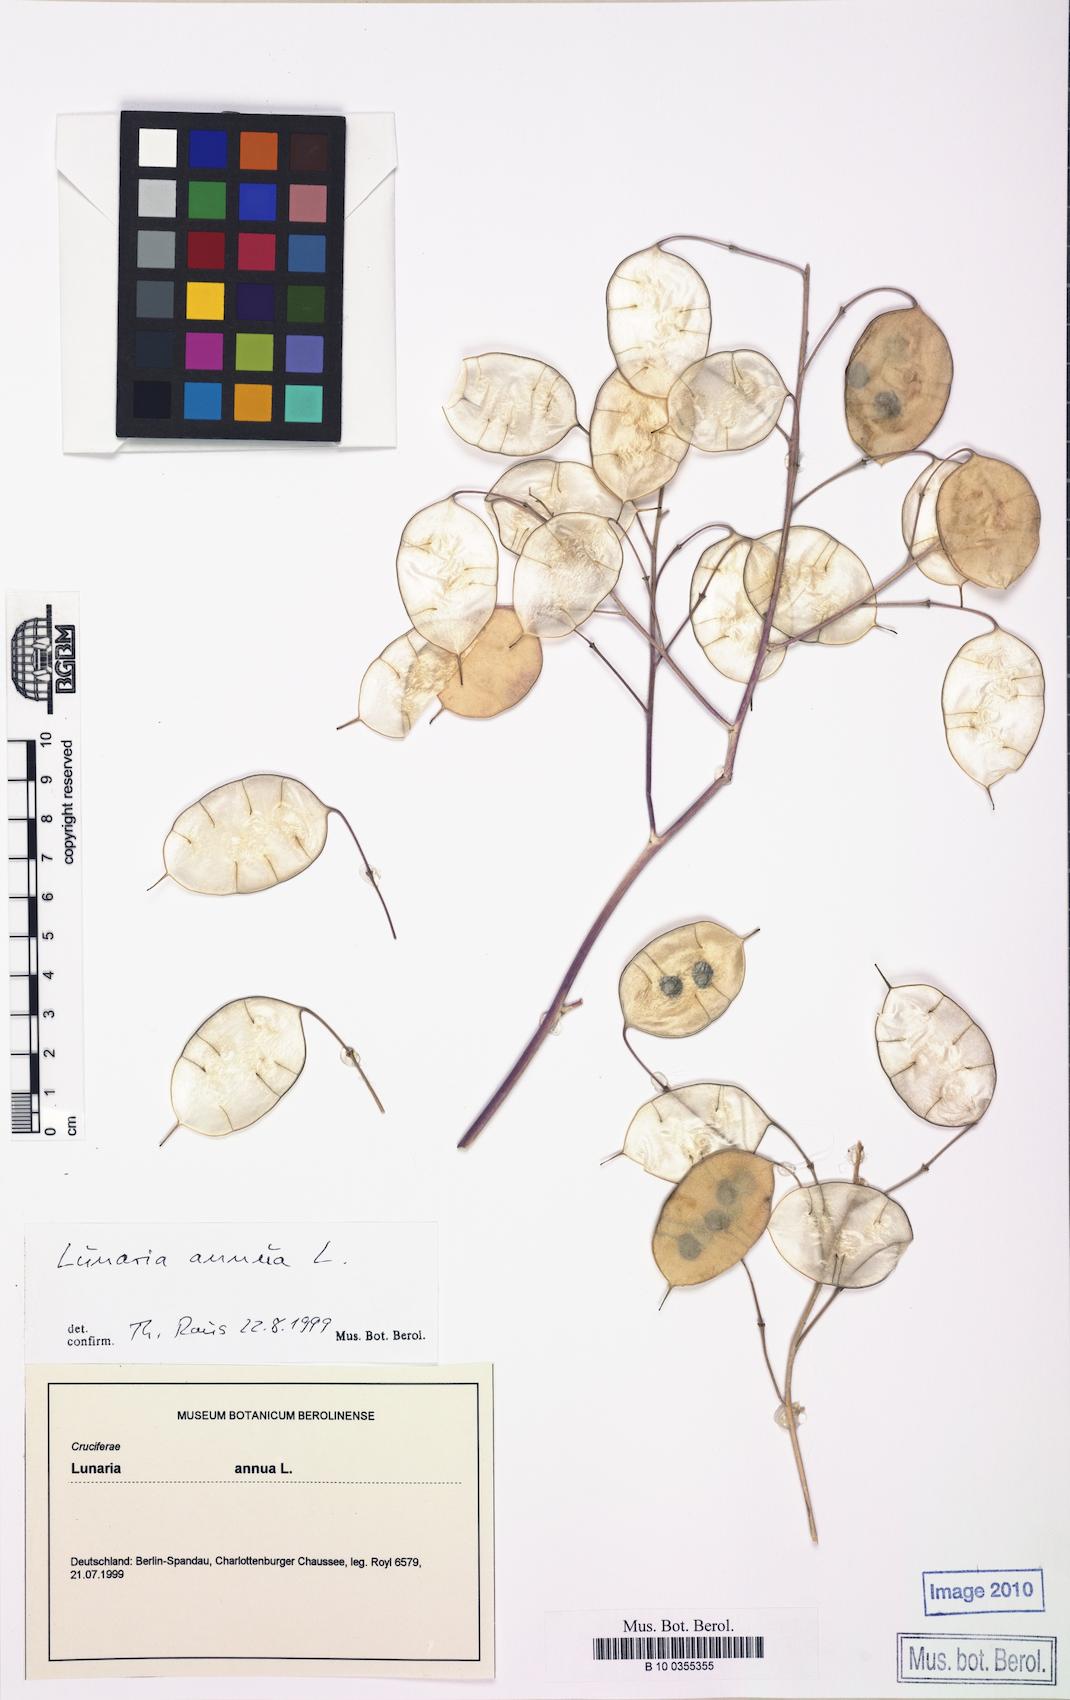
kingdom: Plantae
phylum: Tracheophyta
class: Magnoliopsida
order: Brassicales
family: Brassicaceae
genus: Lunaria
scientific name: Lunaria annua
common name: Honesty
